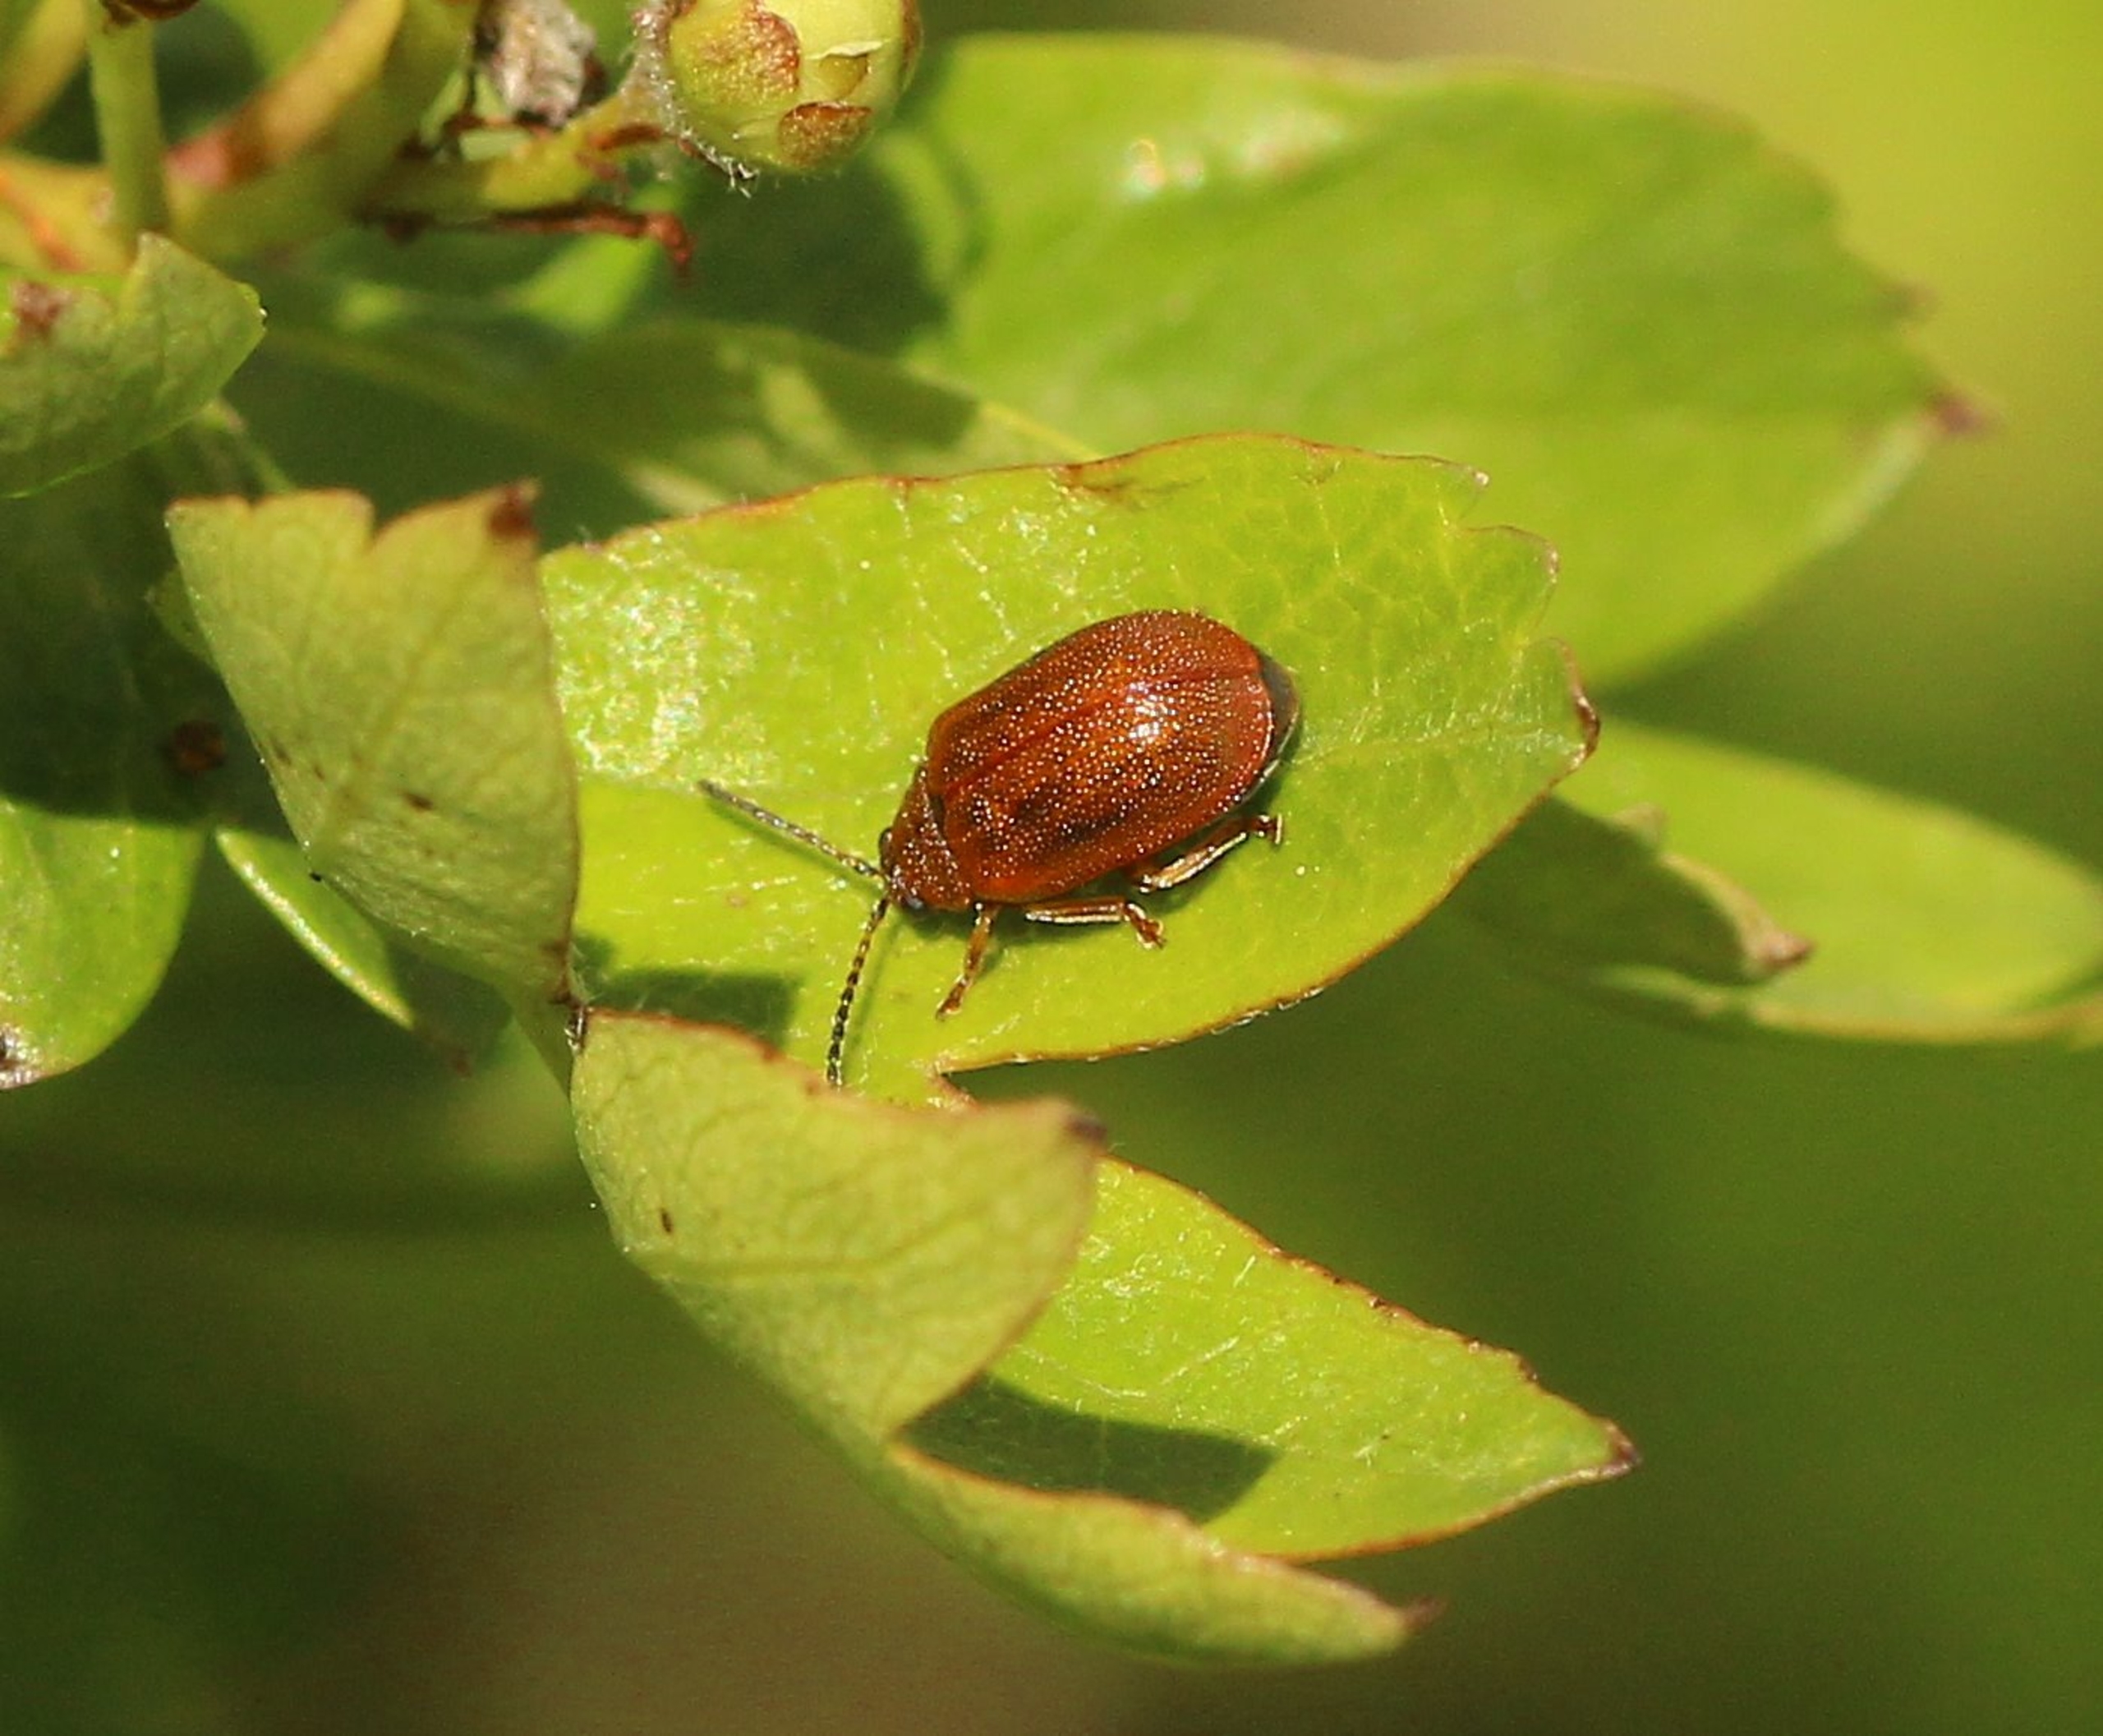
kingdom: Animalia
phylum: Arthropoda
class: Insecta
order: Coleoptera
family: Chrysomelidae
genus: Lochmaea
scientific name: Lochmaea crataegi
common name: Tjørnebladbille
